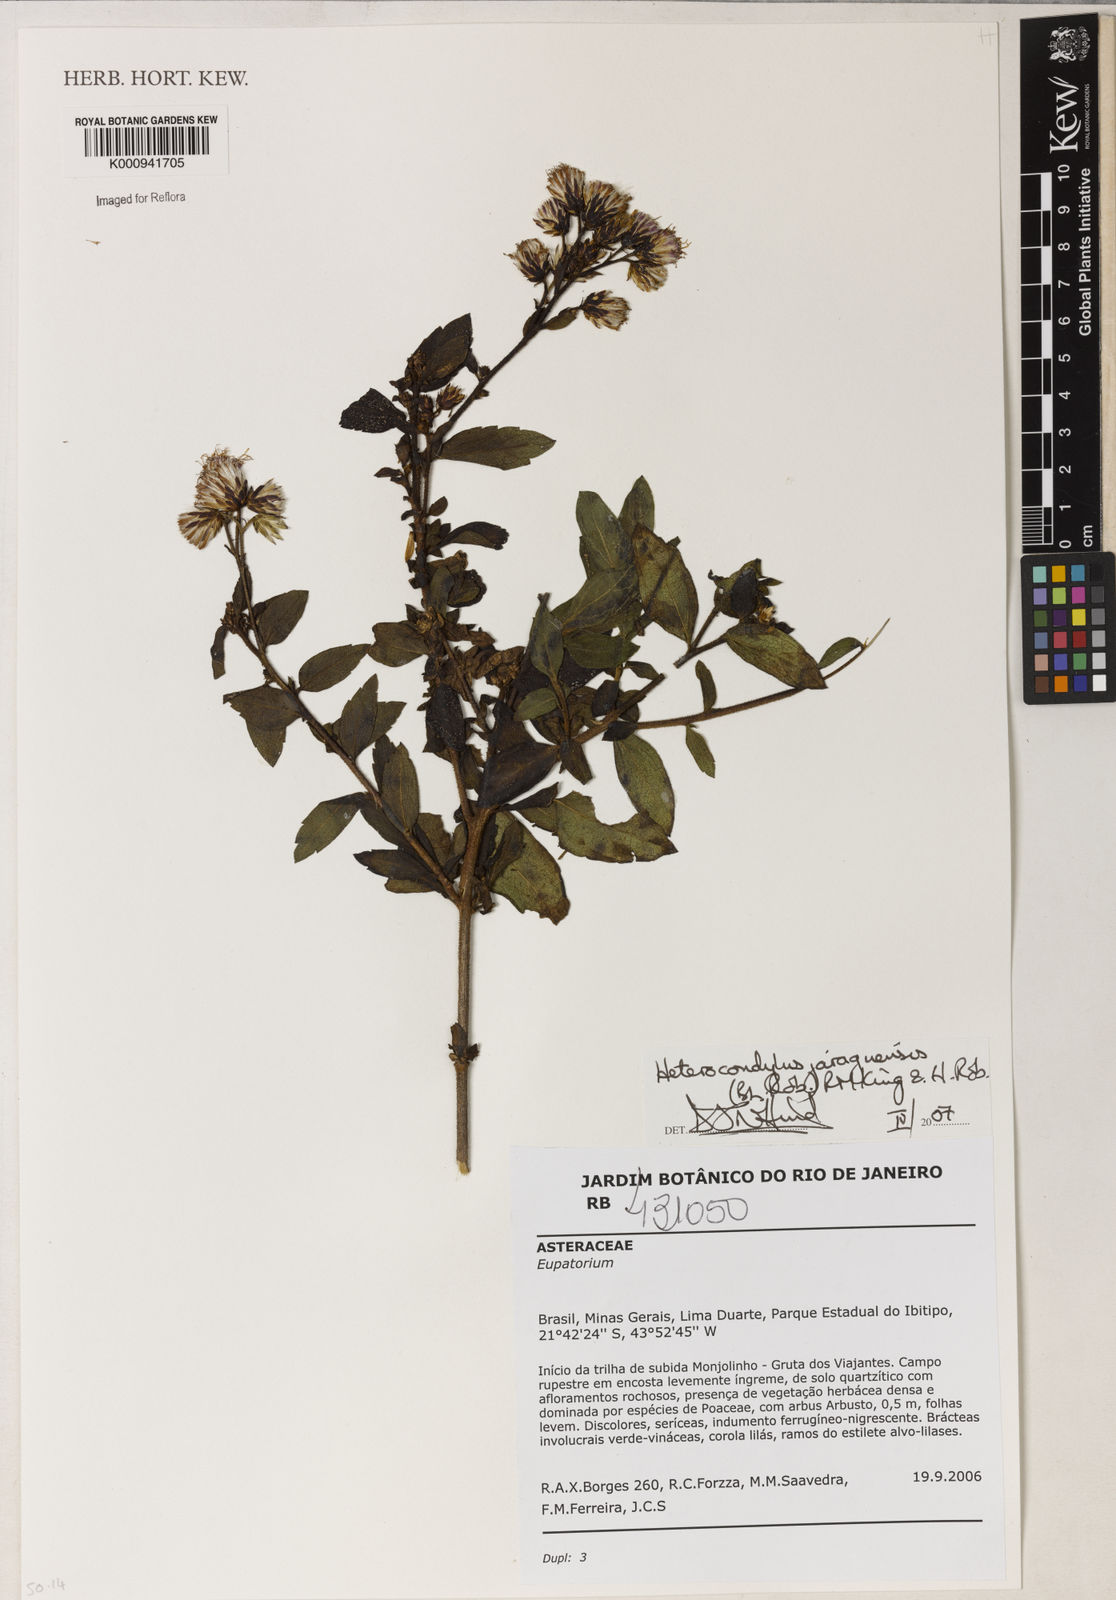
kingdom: Plantae
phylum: Tracheophyta
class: Magnoliopsida
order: Asterales
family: Asteraceae
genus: Heterocondylus
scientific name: Heterocondylus jaraguensis
